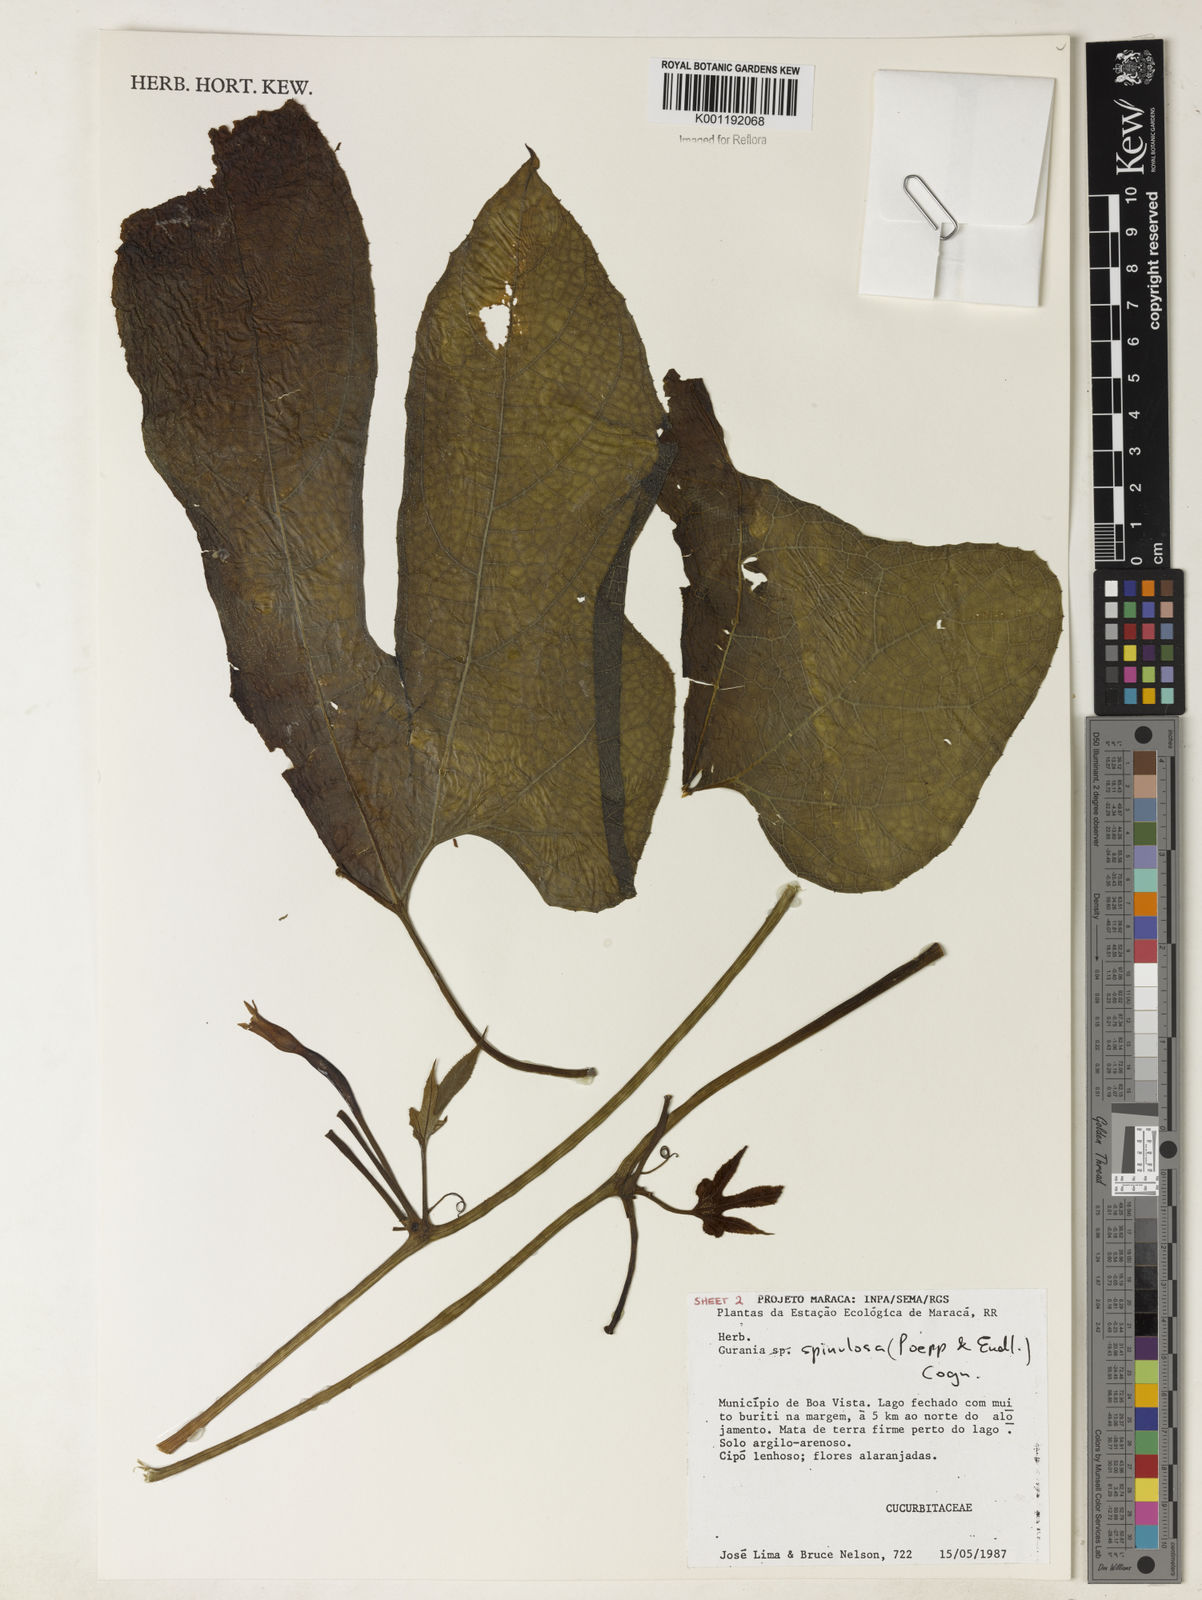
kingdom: Plantae
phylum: Tracheophyta
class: Magnoliopsida
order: Cucurbitales
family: Cucurbitaceae
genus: Gurania
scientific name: Gurania lobata
